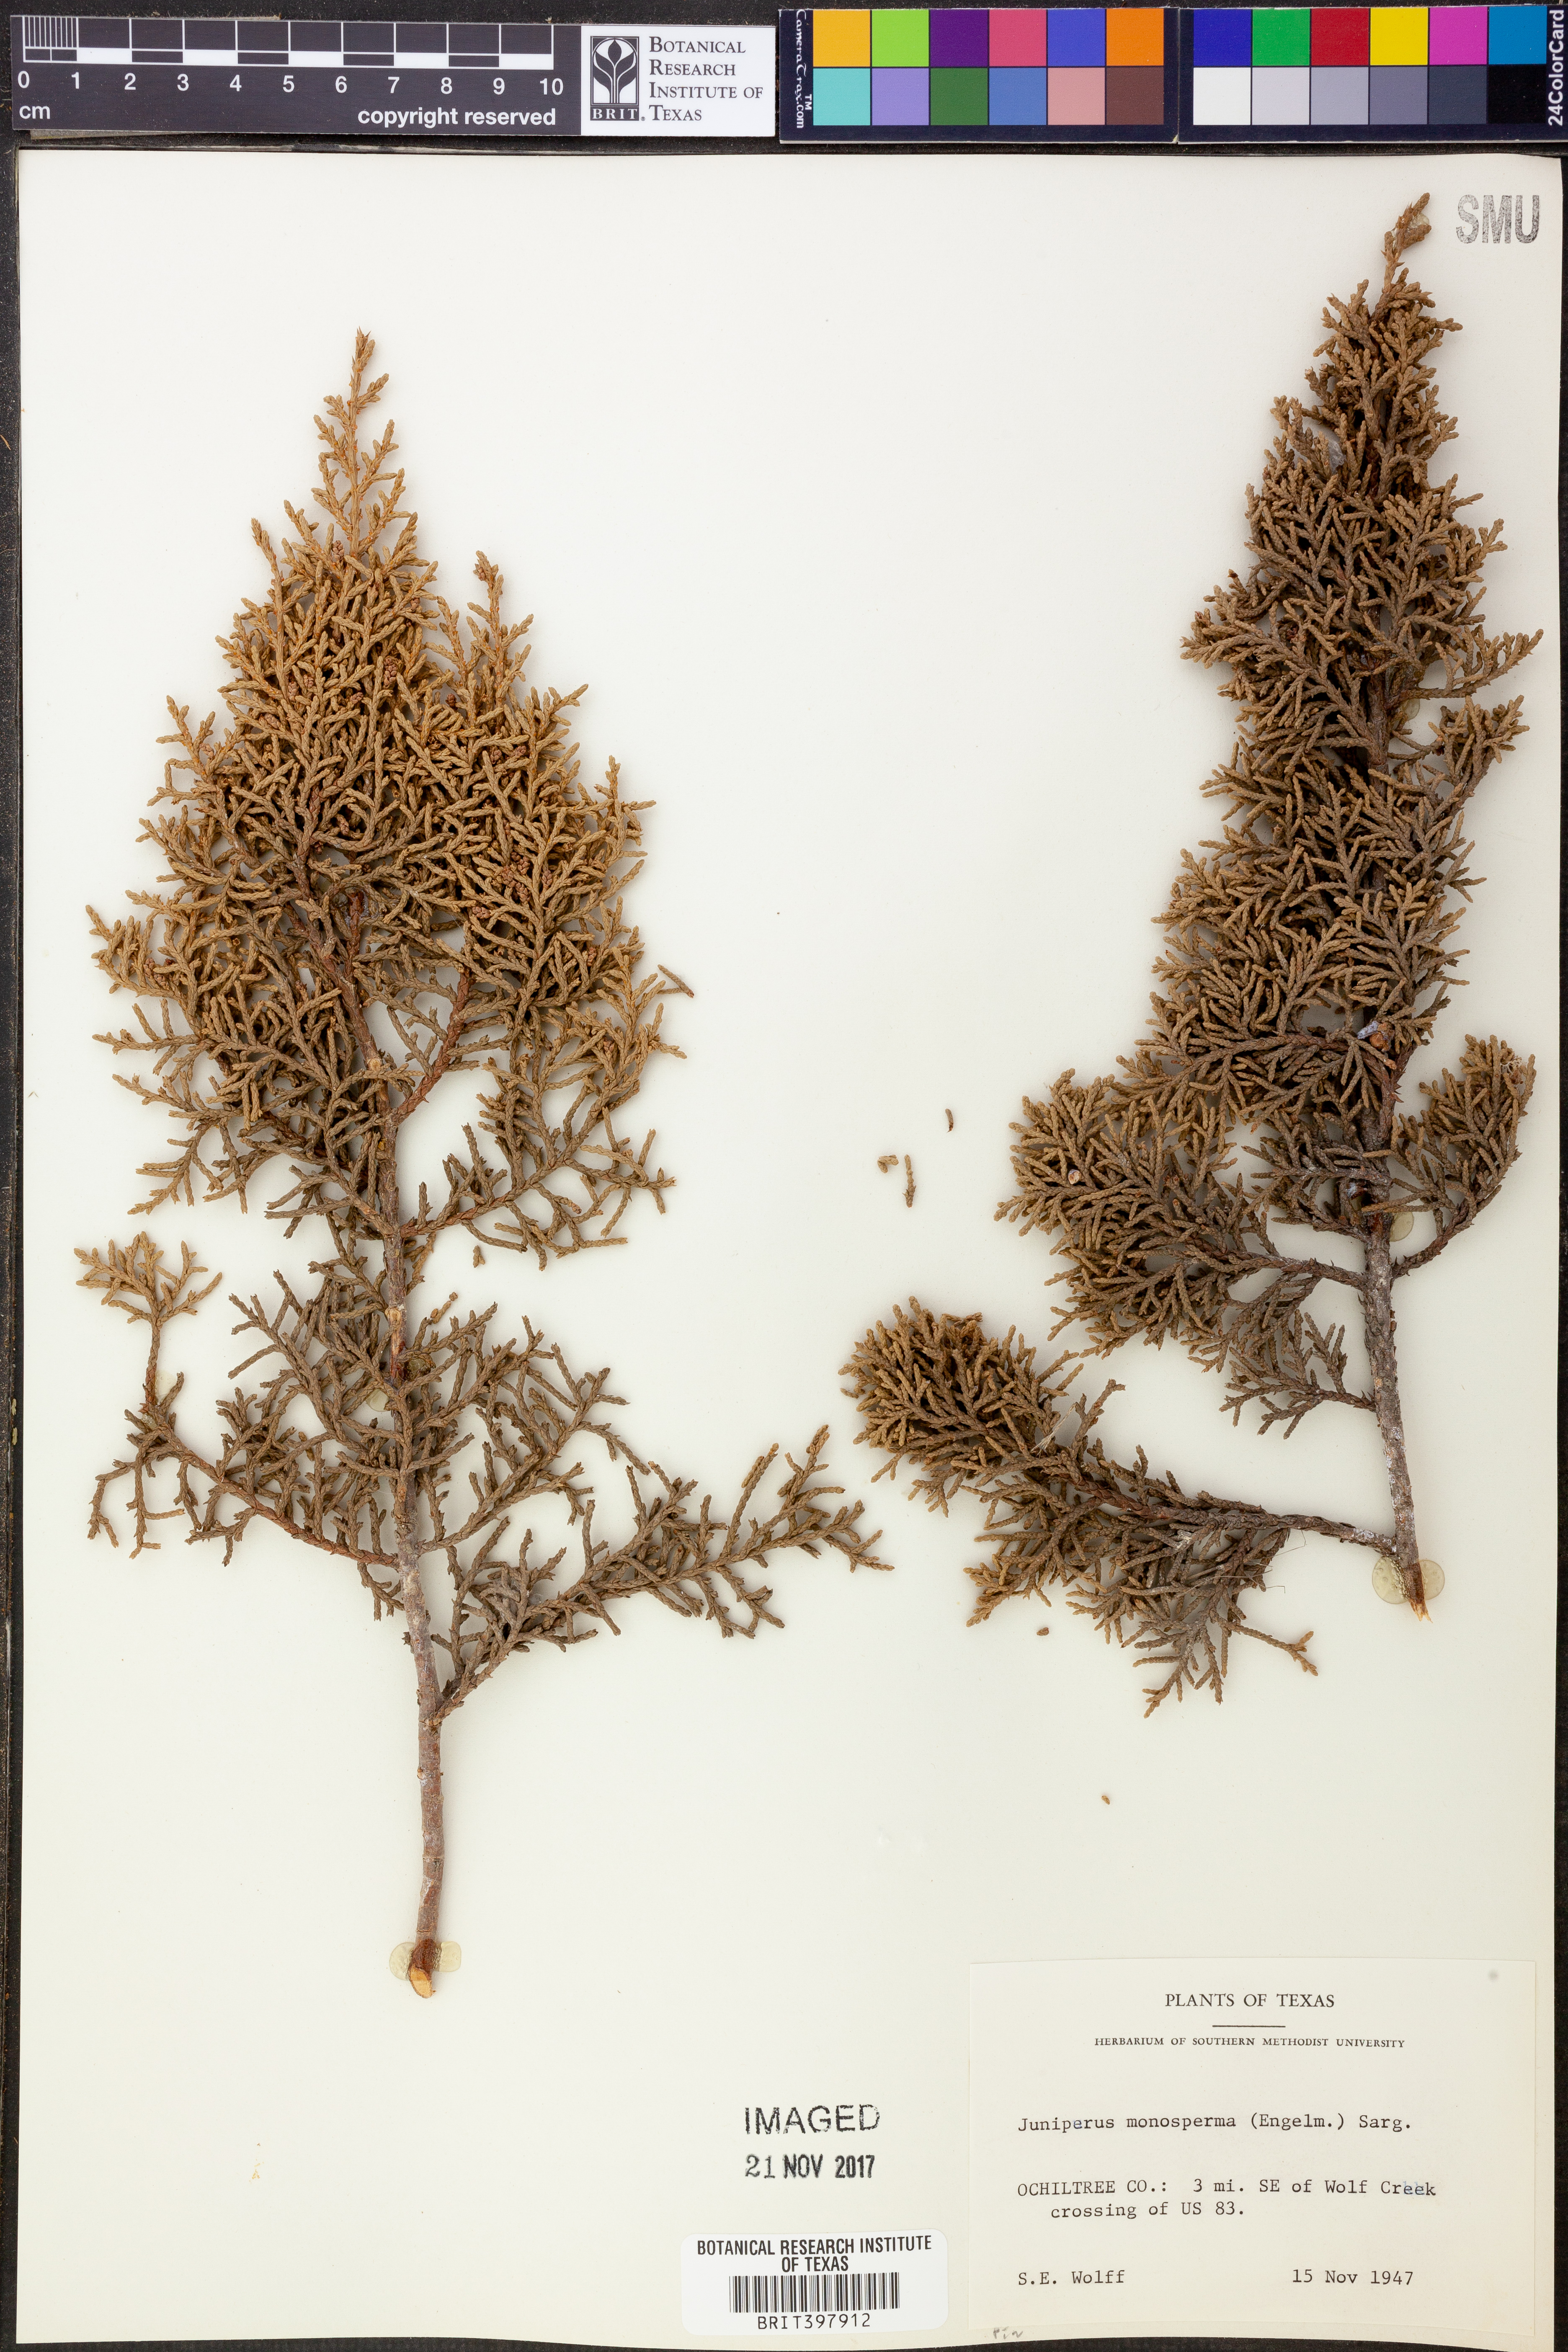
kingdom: Plantae
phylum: Tracheophyta
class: Pinopsida
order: Pinales
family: Cupressaceae
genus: Juniperus
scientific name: Juniperus monosperma
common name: One-seed juniper
